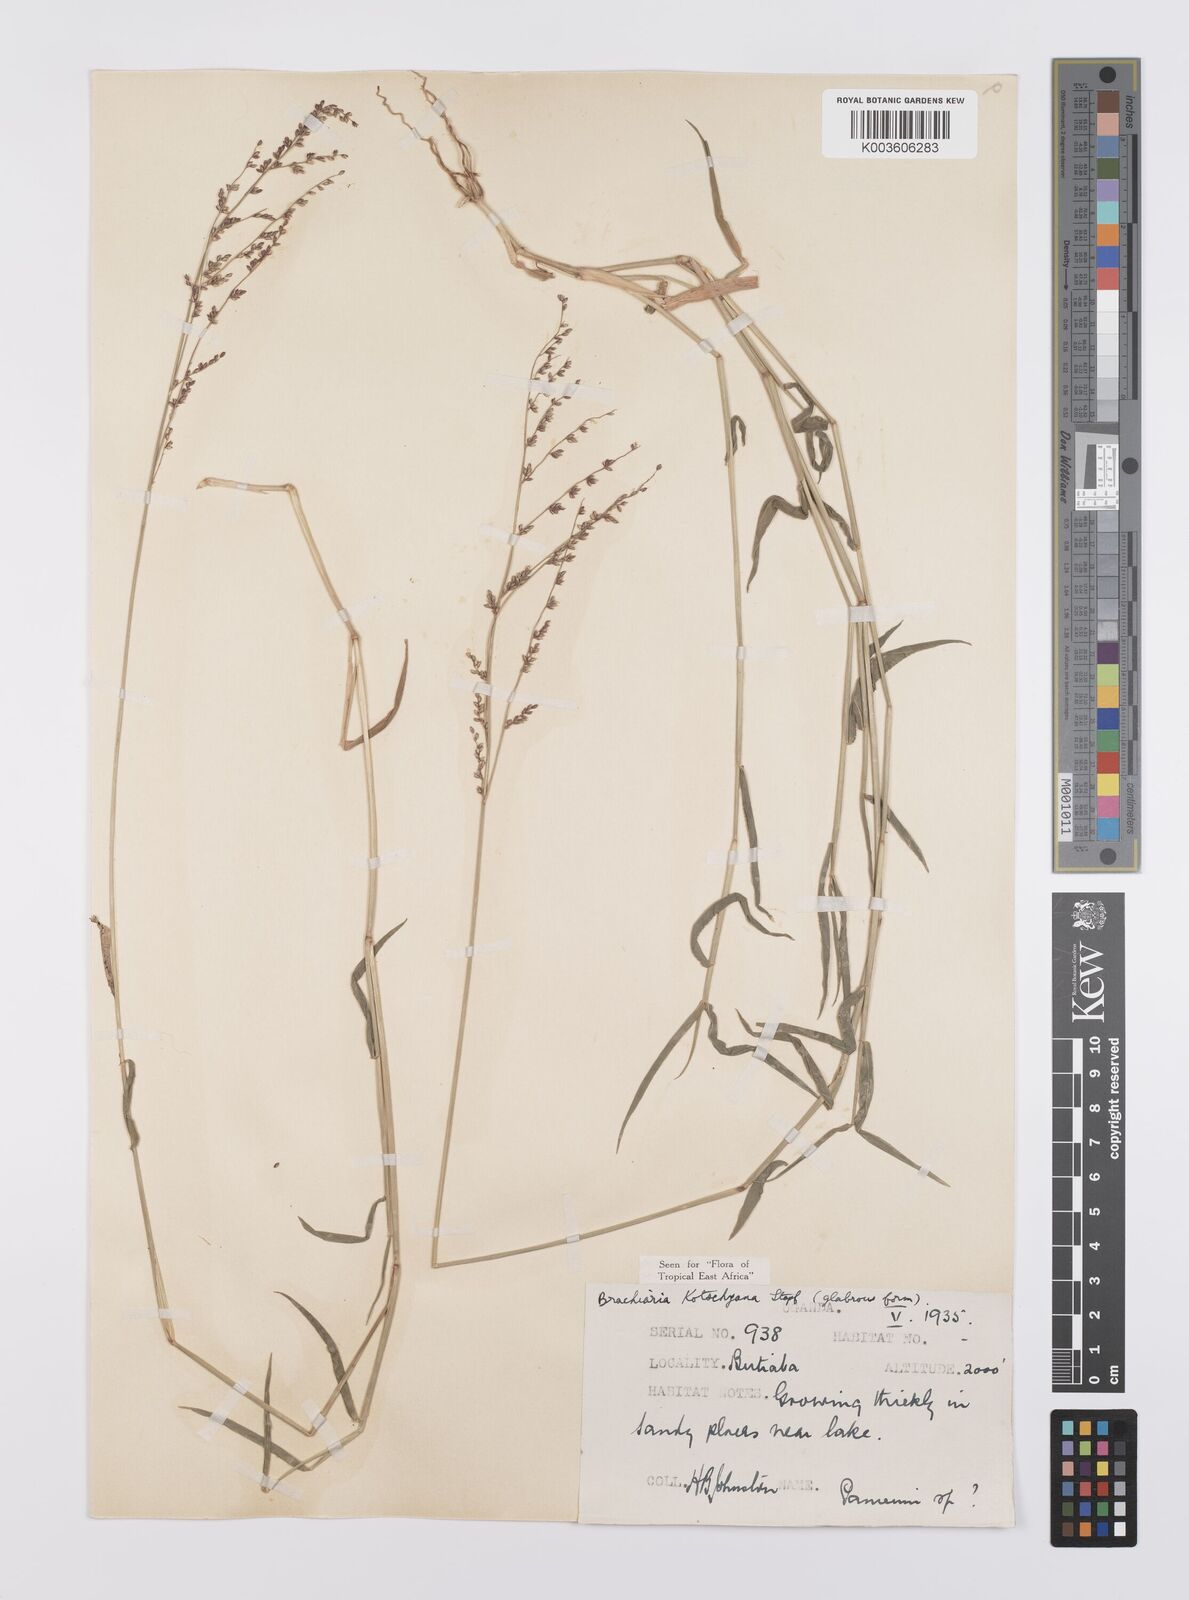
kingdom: Plantae
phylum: Tracheophyta
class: Liliopsida
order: Poales
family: Poaceae
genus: Urochloa
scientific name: Urochloa comata
